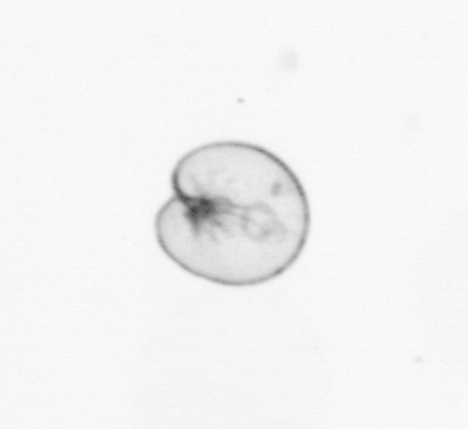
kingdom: Chromista
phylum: Myzozoa
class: Dinophyceae
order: Noctilucales
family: Noctilucaceae
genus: Noctiluca
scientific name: Noctiluca scintillans
